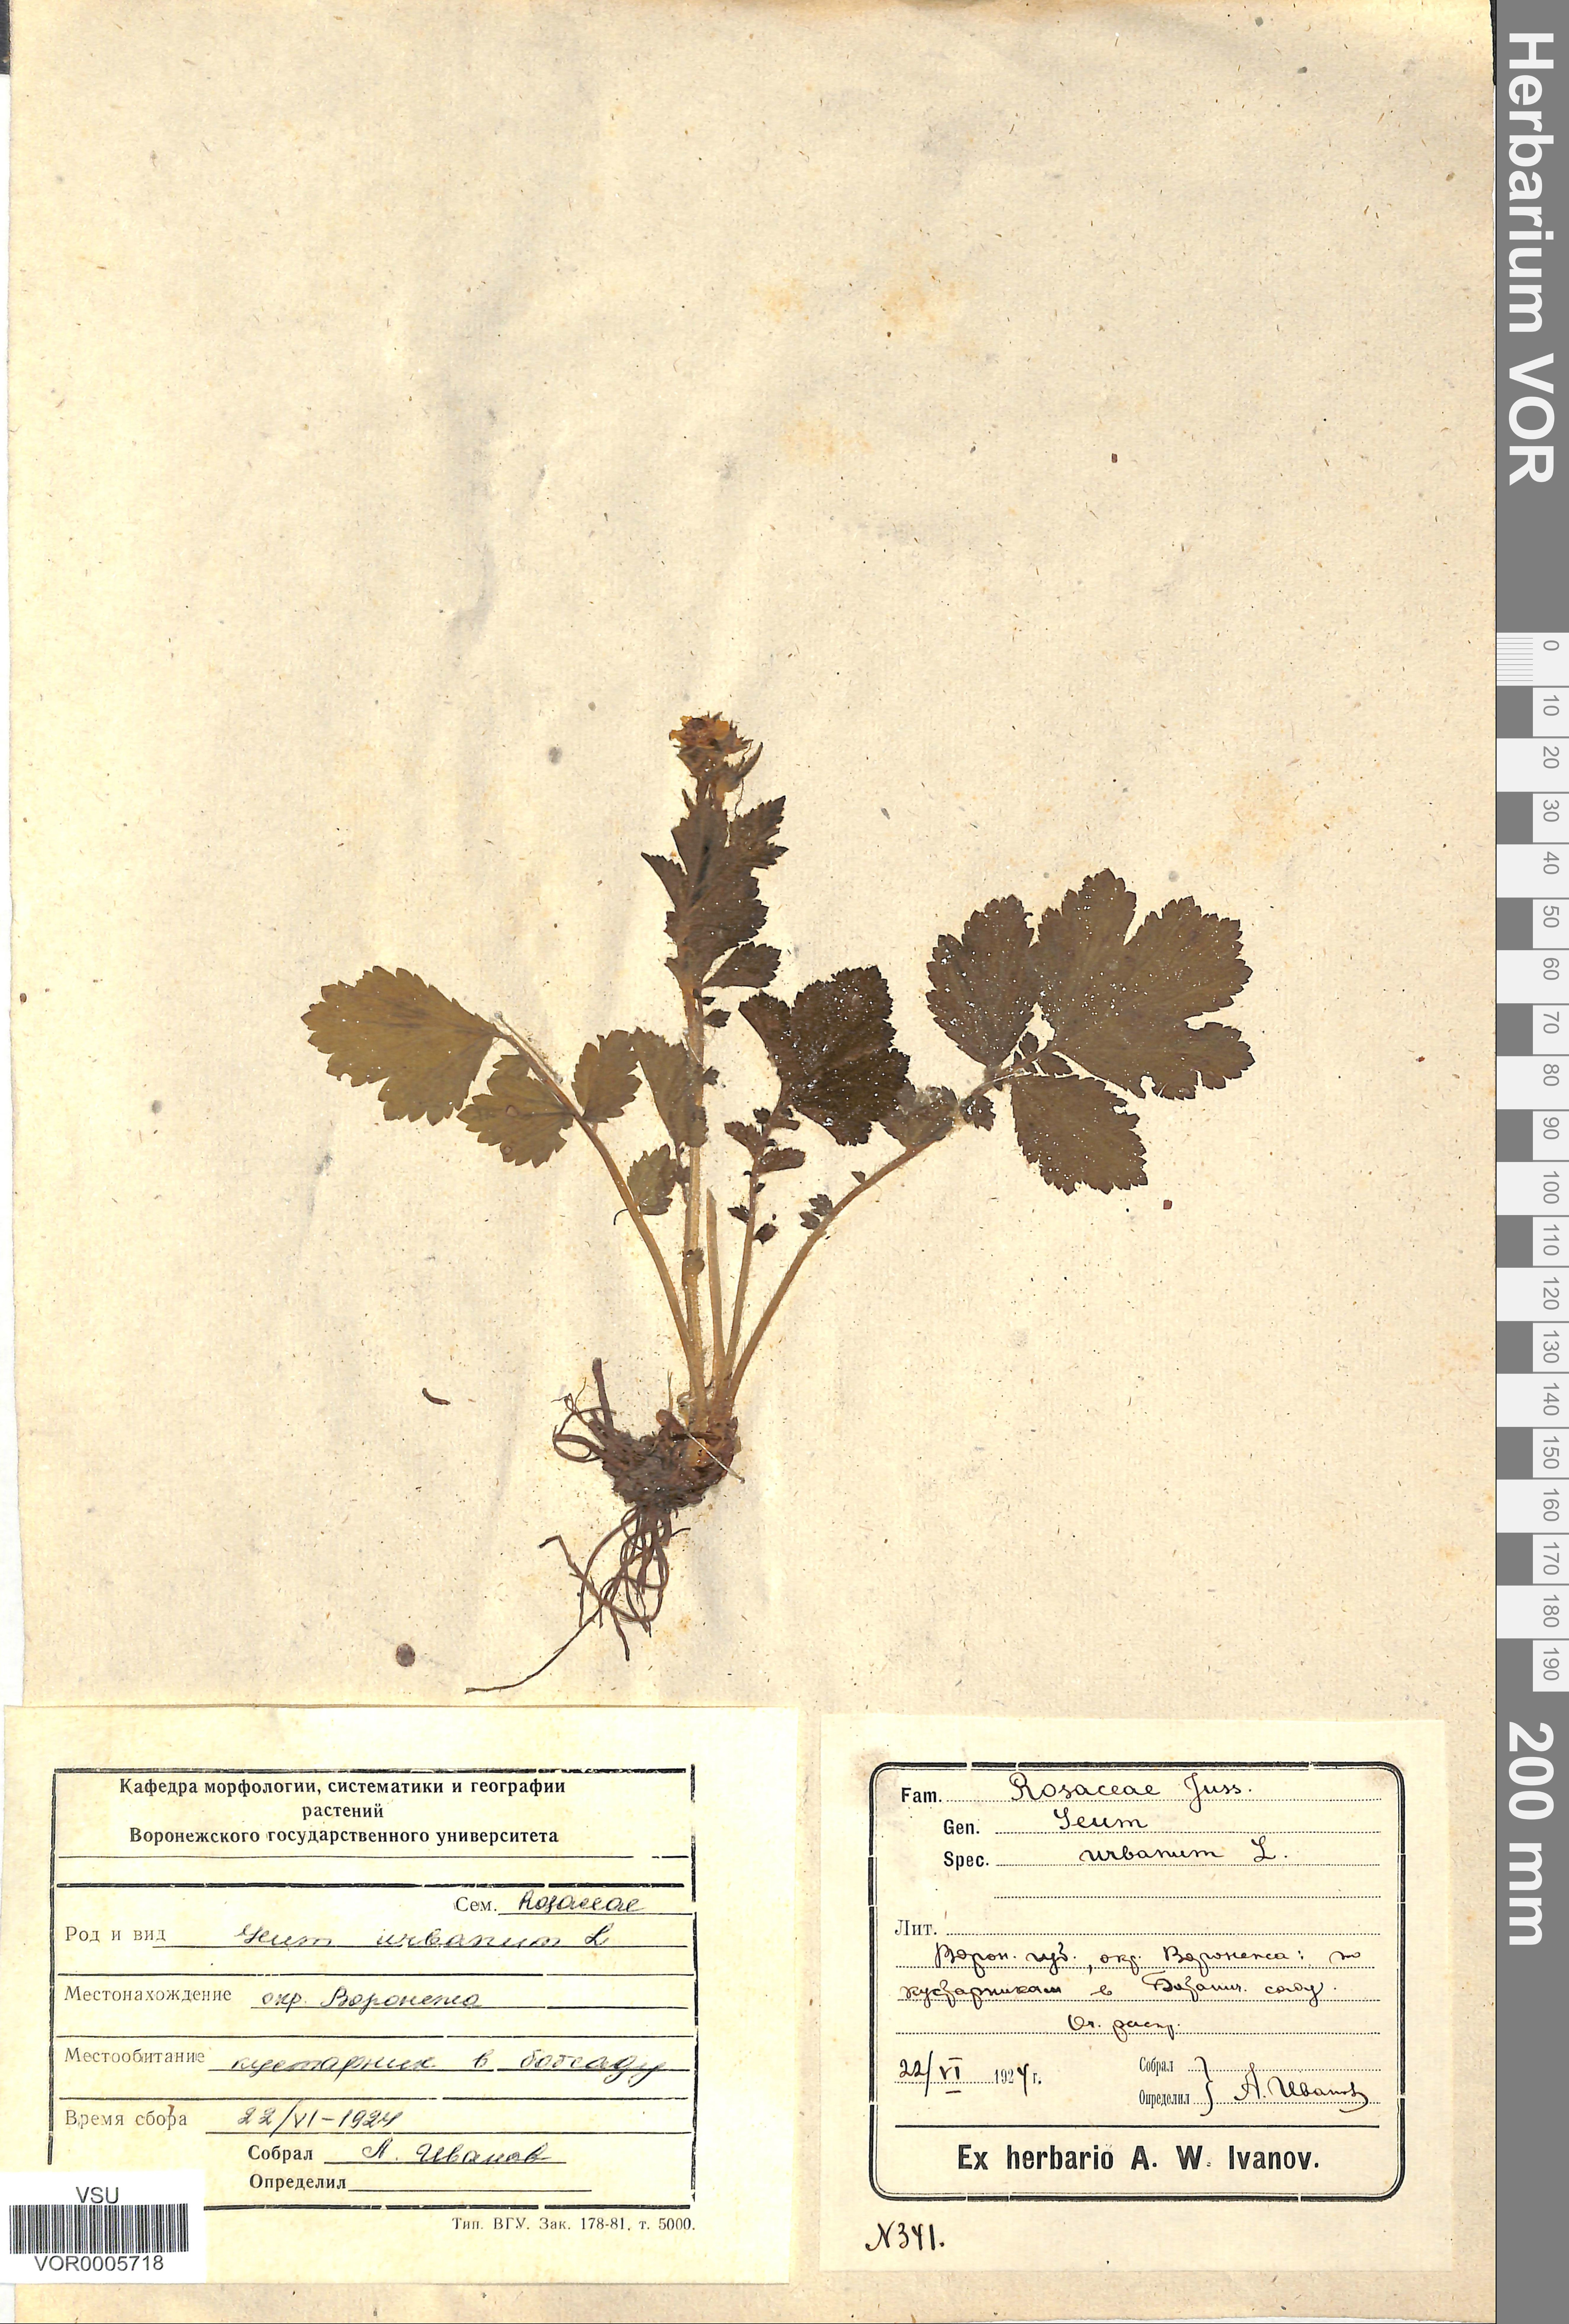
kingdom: Plantae
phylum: Tracheophyta
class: Magnoliopsida
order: Rosales
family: Rosaceae
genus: Geum
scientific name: Geum urbanum
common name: Wood avens
